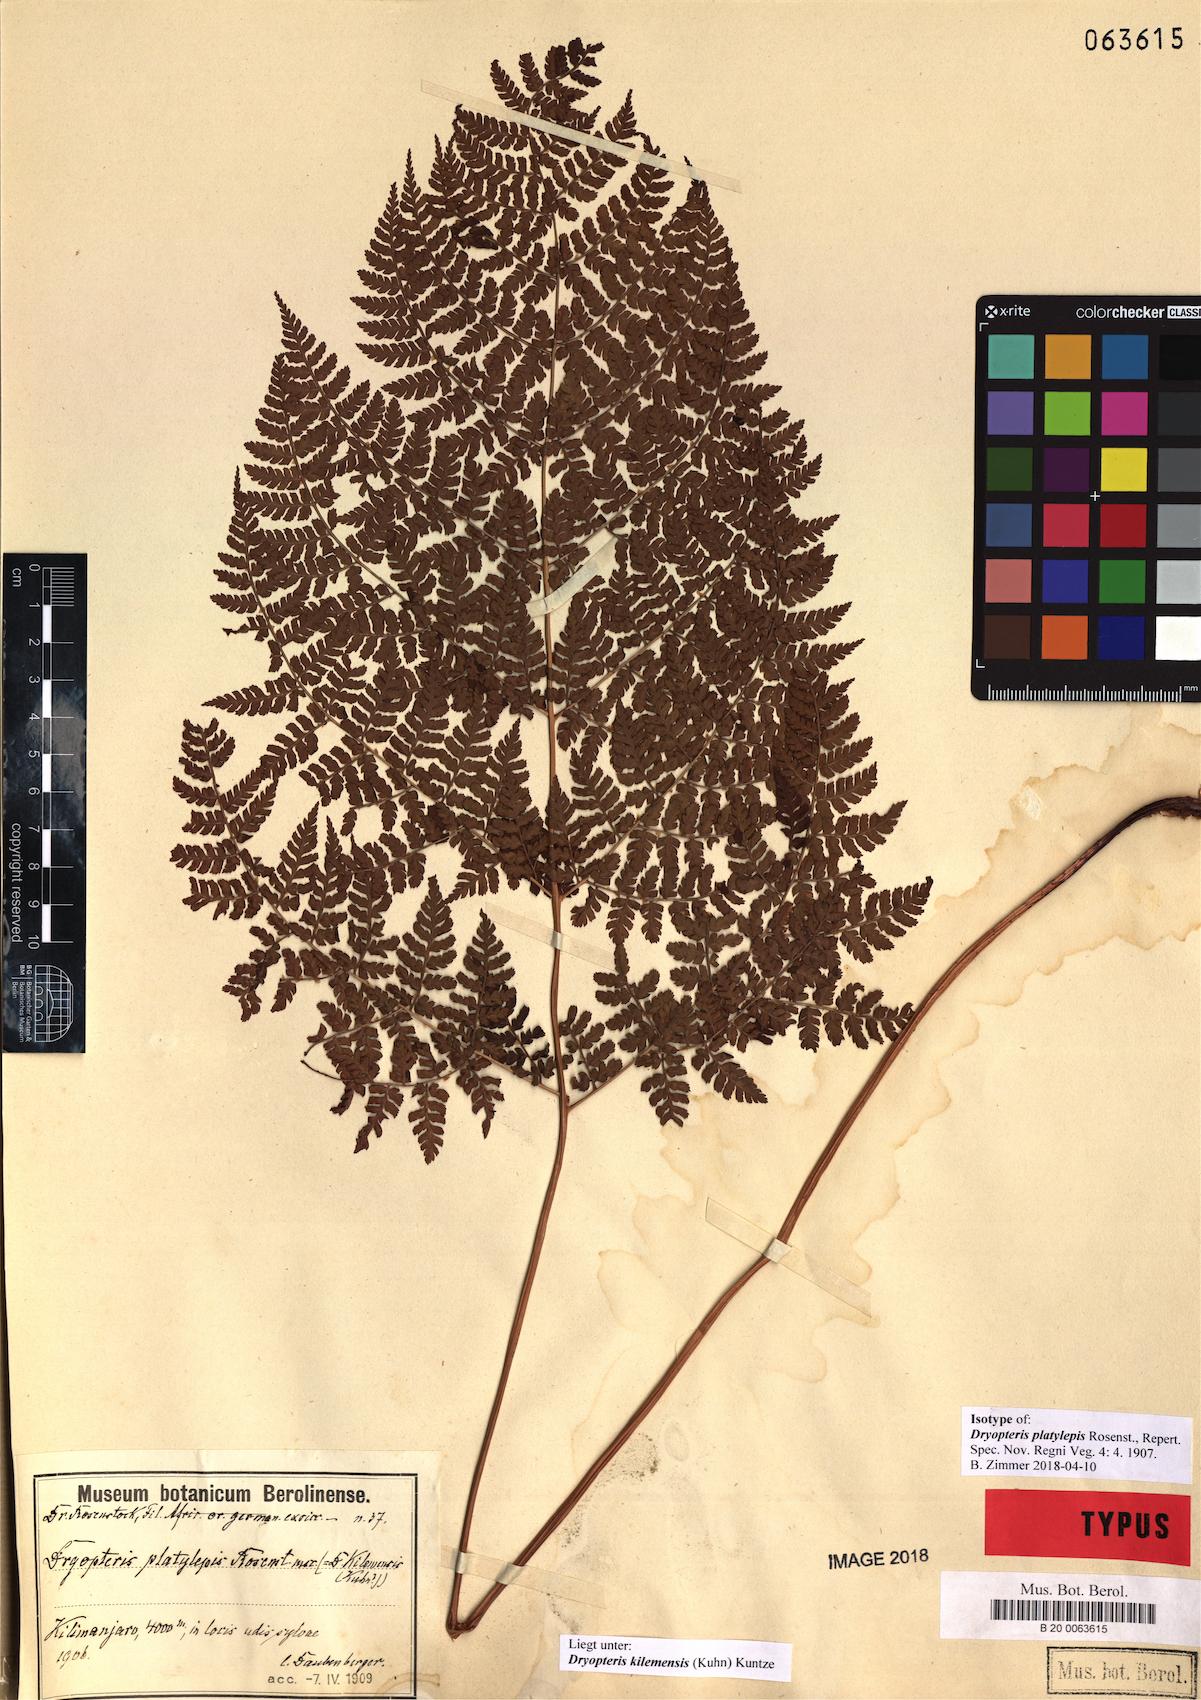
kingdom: Plantae
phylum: Tracheophyta
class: Polypodiopsida
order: Polypodiales
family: Dryopteridaceae
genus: Dryopteris
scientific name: Dryopteris kilemensis
